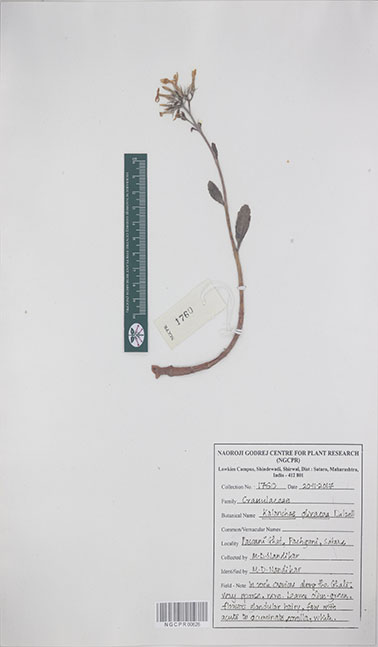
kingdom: Plantae
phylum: Tracheophyta
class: Magnoliopsida
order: Saxifragales
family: Crassulaceae
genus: Kalanchoe
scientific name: Kalanchoe olivacea
